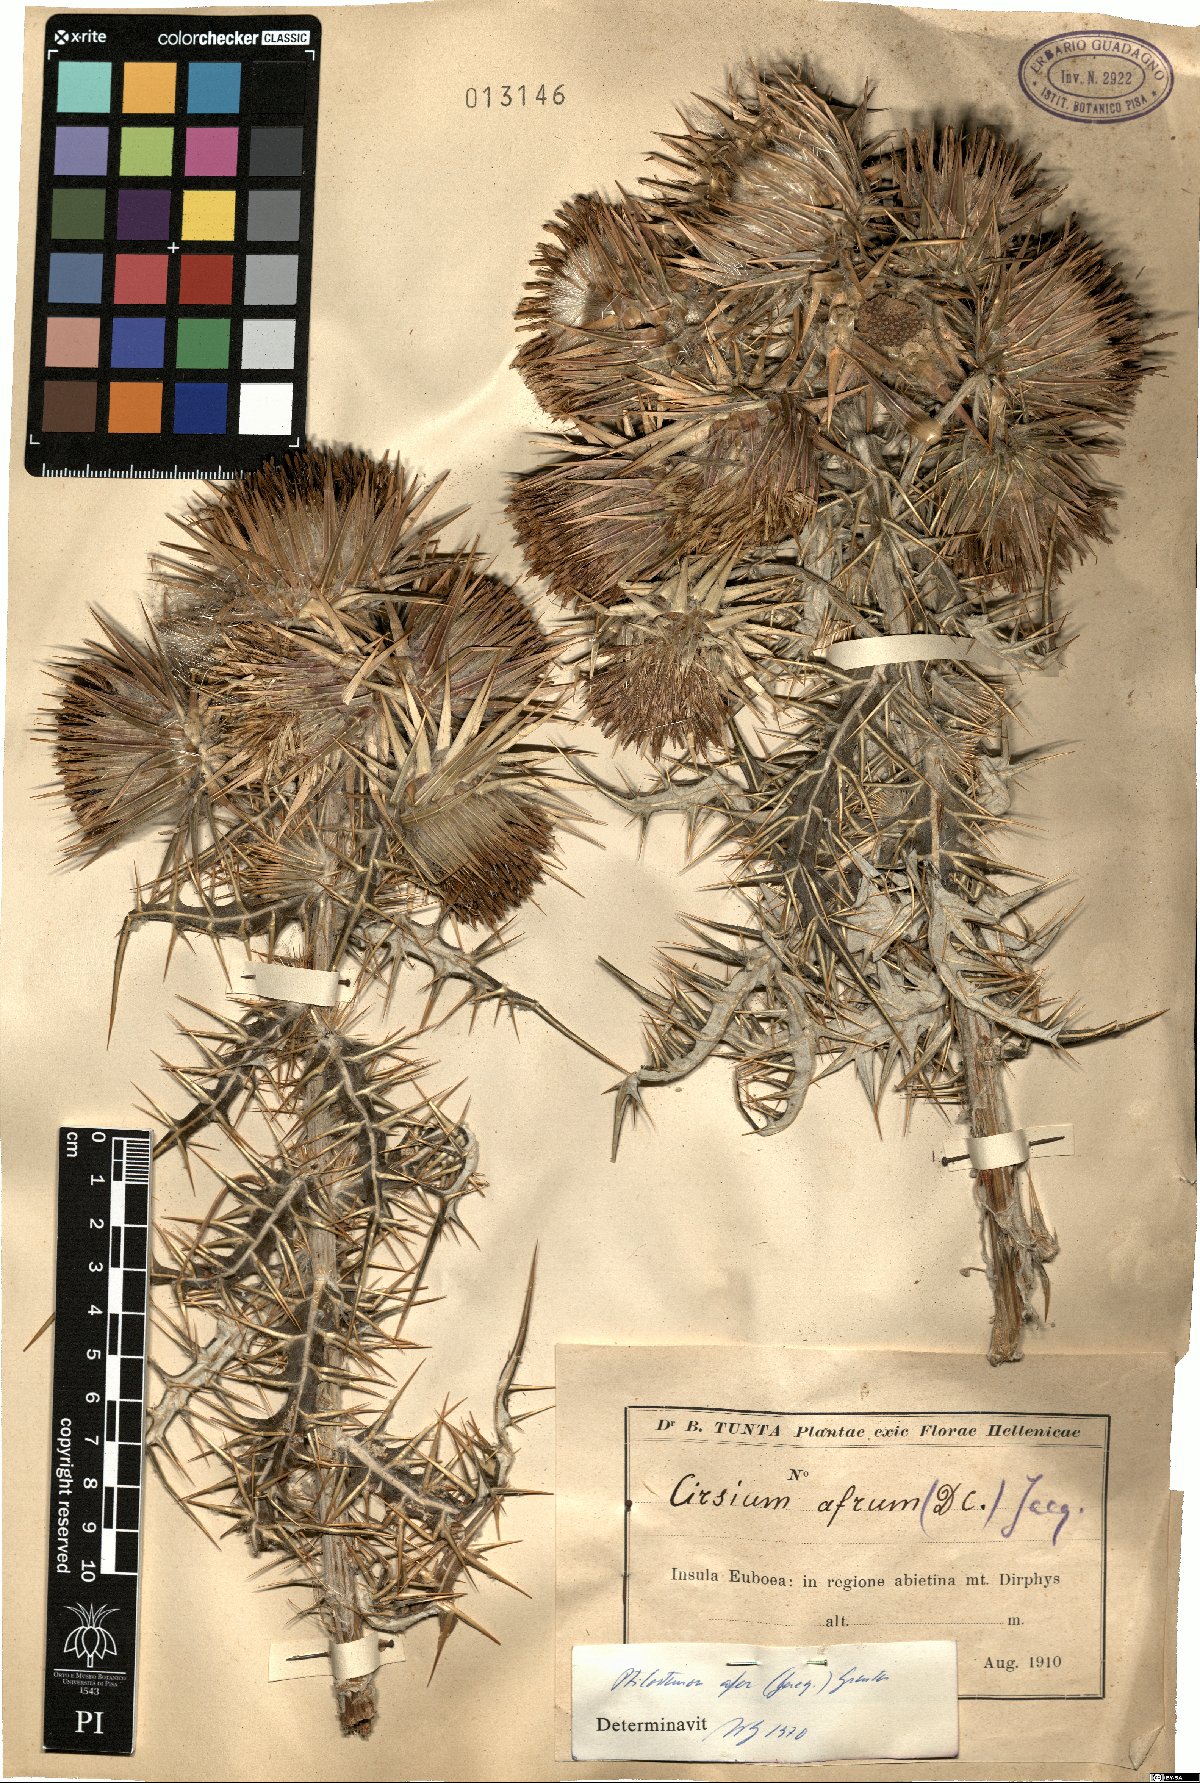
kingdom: Plantae
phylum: Tracheophyta
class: Magnoliopsida
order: Asterales
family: Asteraceae
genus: Ptilostemon
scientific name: Ptilostemon afer
